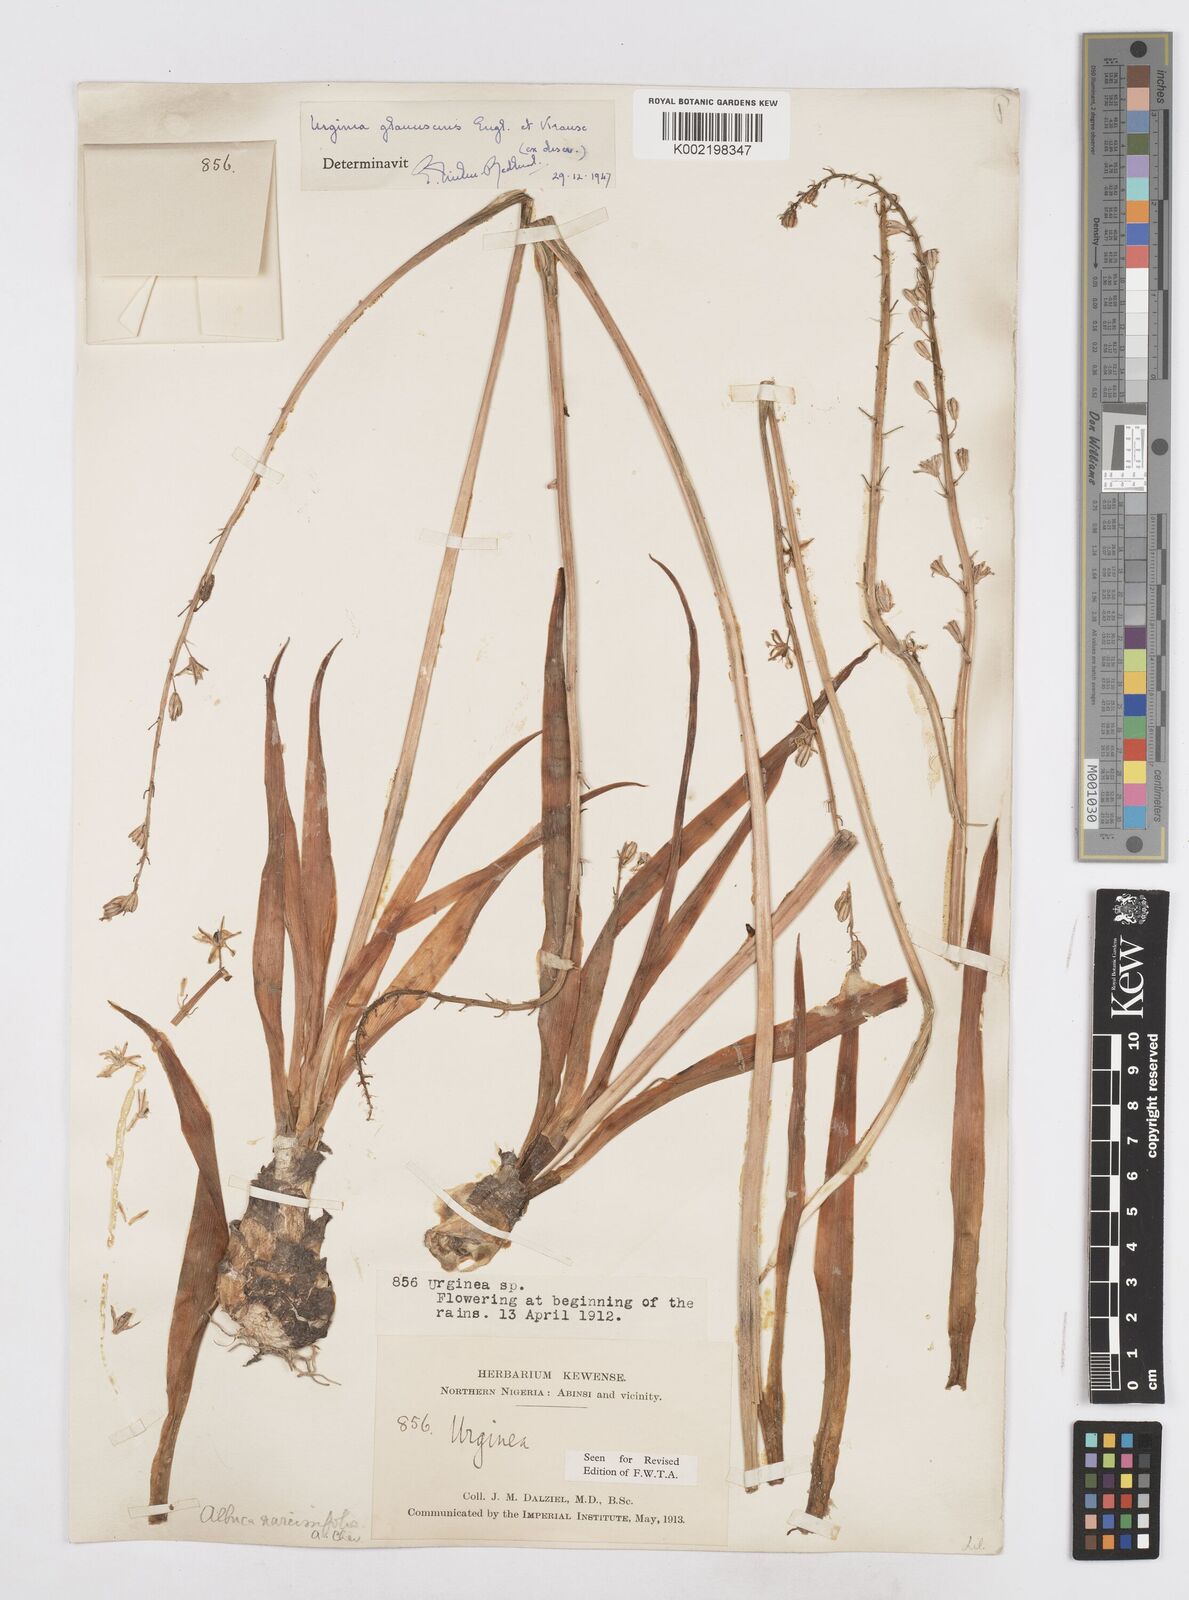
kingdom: Plantae
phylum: Tracheophyta
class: Liliopsida
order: Asparagales
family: Asparagaceae
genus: Ledebouria
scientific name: Ledebouria ensifolia
